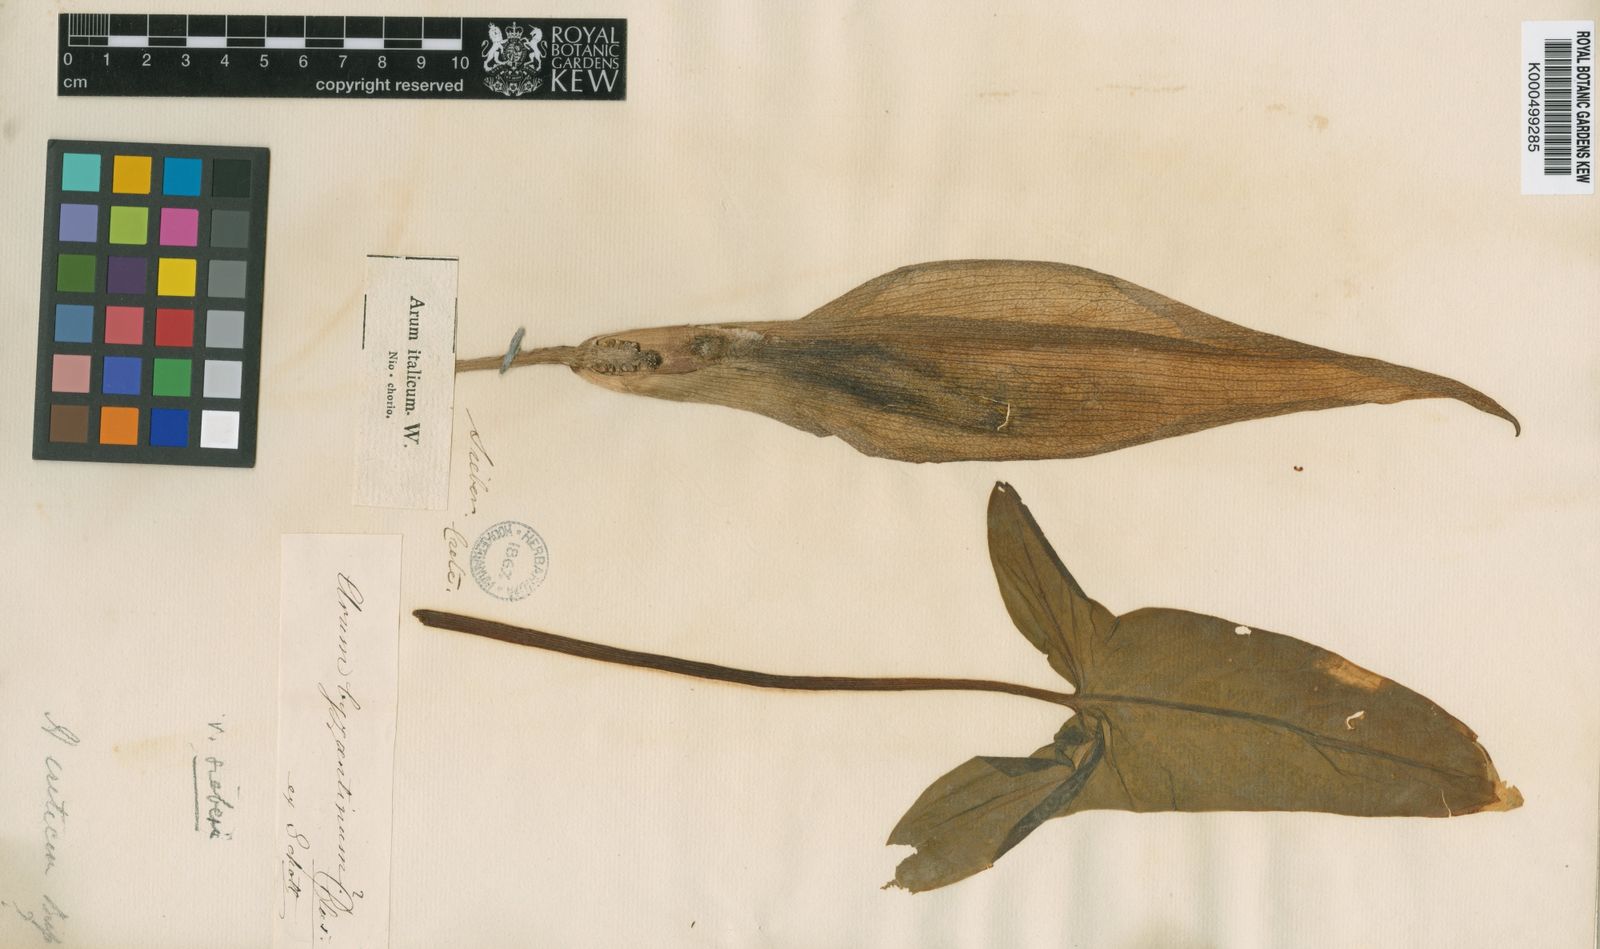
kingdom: Plantae
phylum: Tracheophyta
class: Liliopsida
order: Alismatales
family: Araceae
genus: Arum
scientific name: Arum italicum
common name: Italian lords-and-ladies
